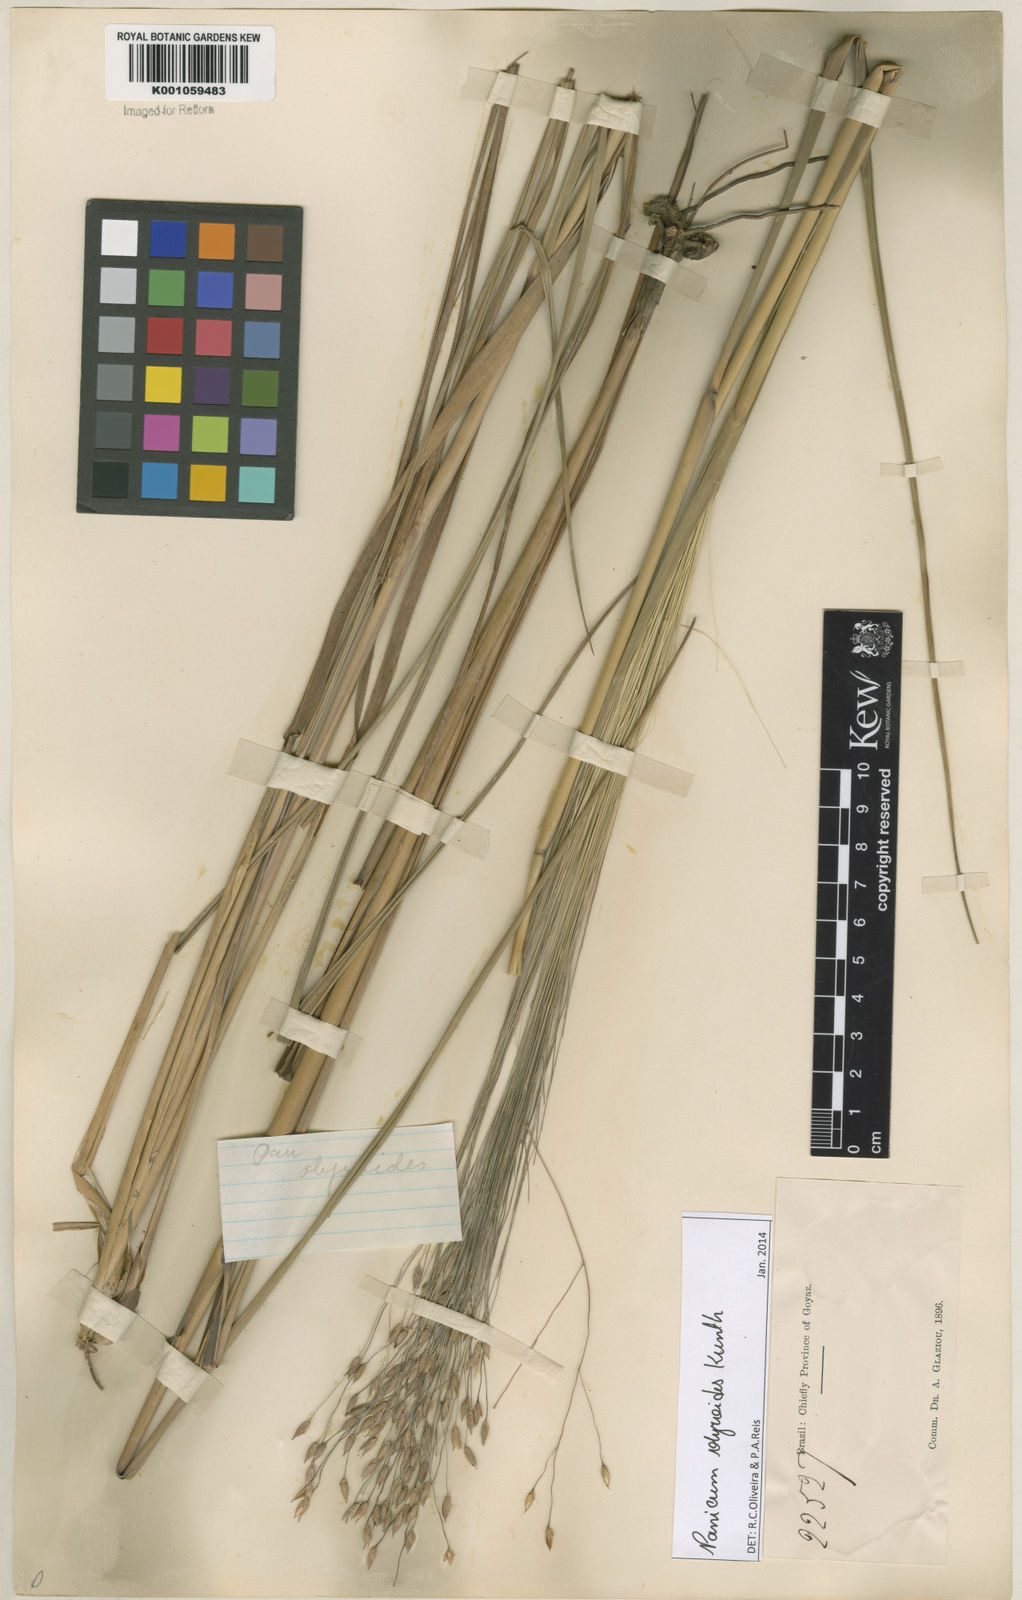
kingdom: Plantae
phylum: Tracheophyta
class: Liliopsida
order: Poales
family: Poaceae
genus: Panicum
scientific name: Panicum olyroides
